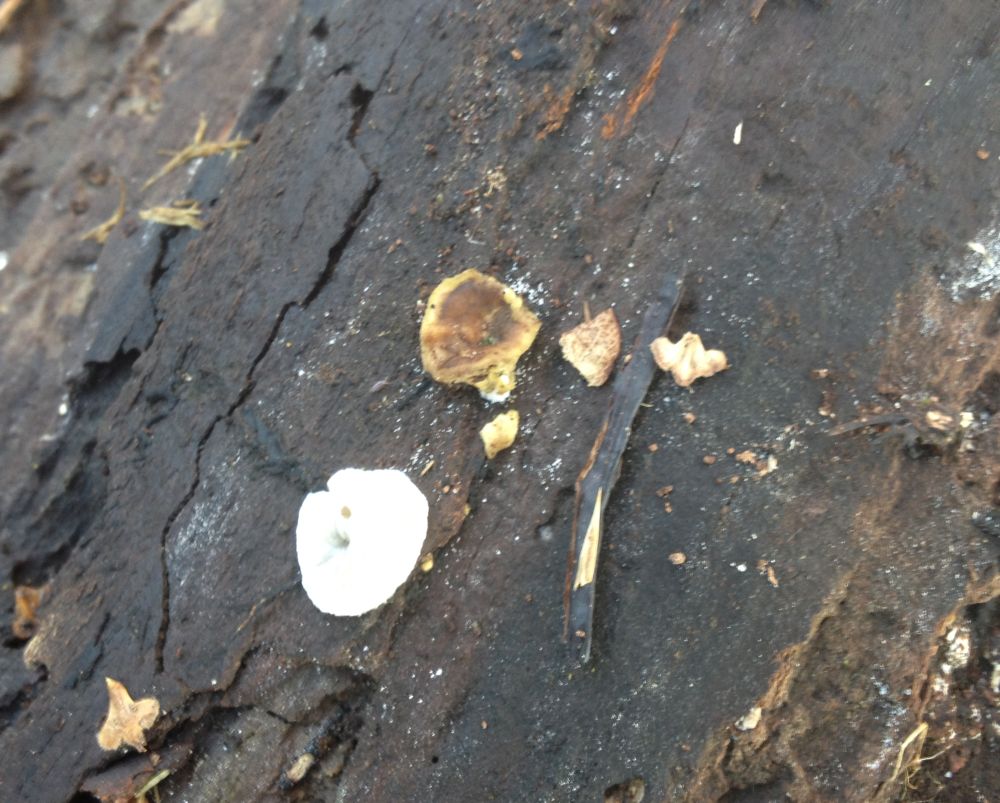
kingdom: Fungi
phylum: Basidiomycota
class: Agaricomycetes
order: Russulales
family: Stereaceae
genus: Stereum
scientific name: Stereum hirsutum
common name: håret lædersvamp
